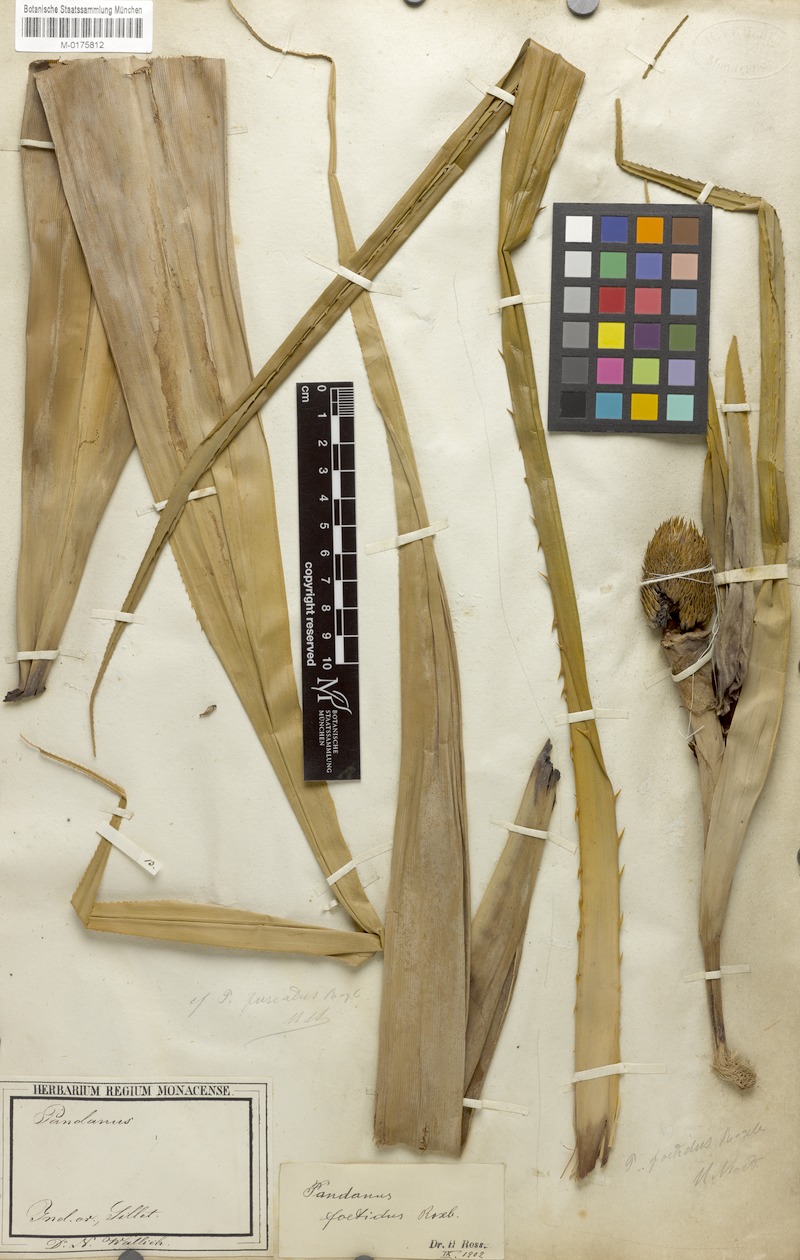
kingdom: Plantae
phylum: Tracheophyta
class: Liliopsida
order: Pandanales
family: Pandanaceae
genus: Benstonea
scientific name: Benstonea foetida
